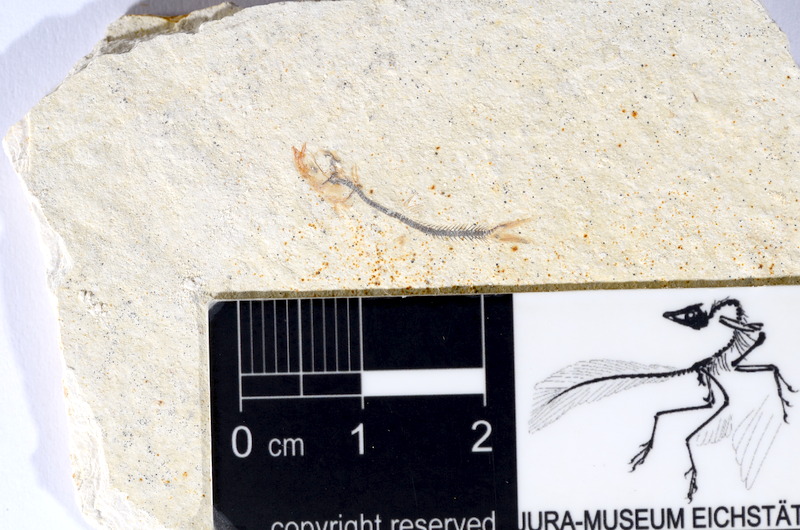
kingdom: Animalia
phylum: Chordata
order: Salmoniformes
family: Orthogonikleithridae
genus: Orthogonikleithrus
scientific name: Orthogonikleithrus hoelli
